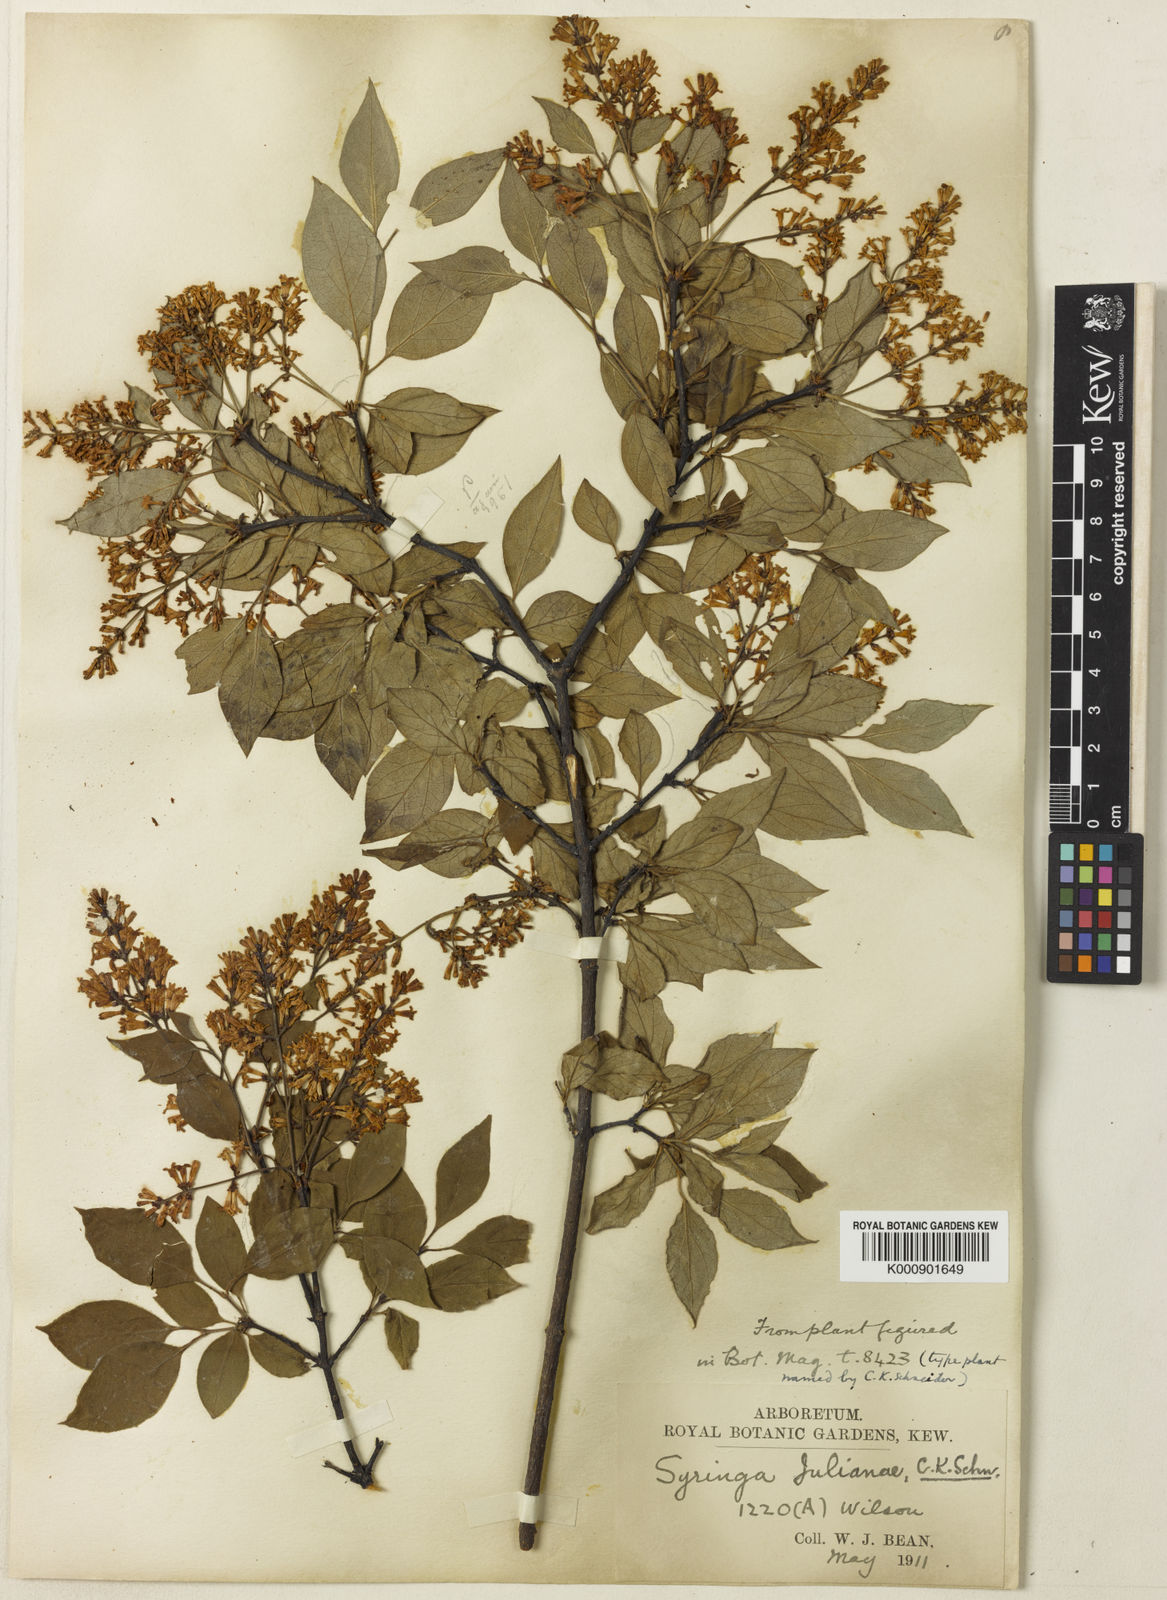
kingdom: Plantae
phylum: Tracheophyta
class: Magnoliopsida
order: Lamiales
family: Oleaceae
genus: Syringa
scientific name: Syringa pubescens
